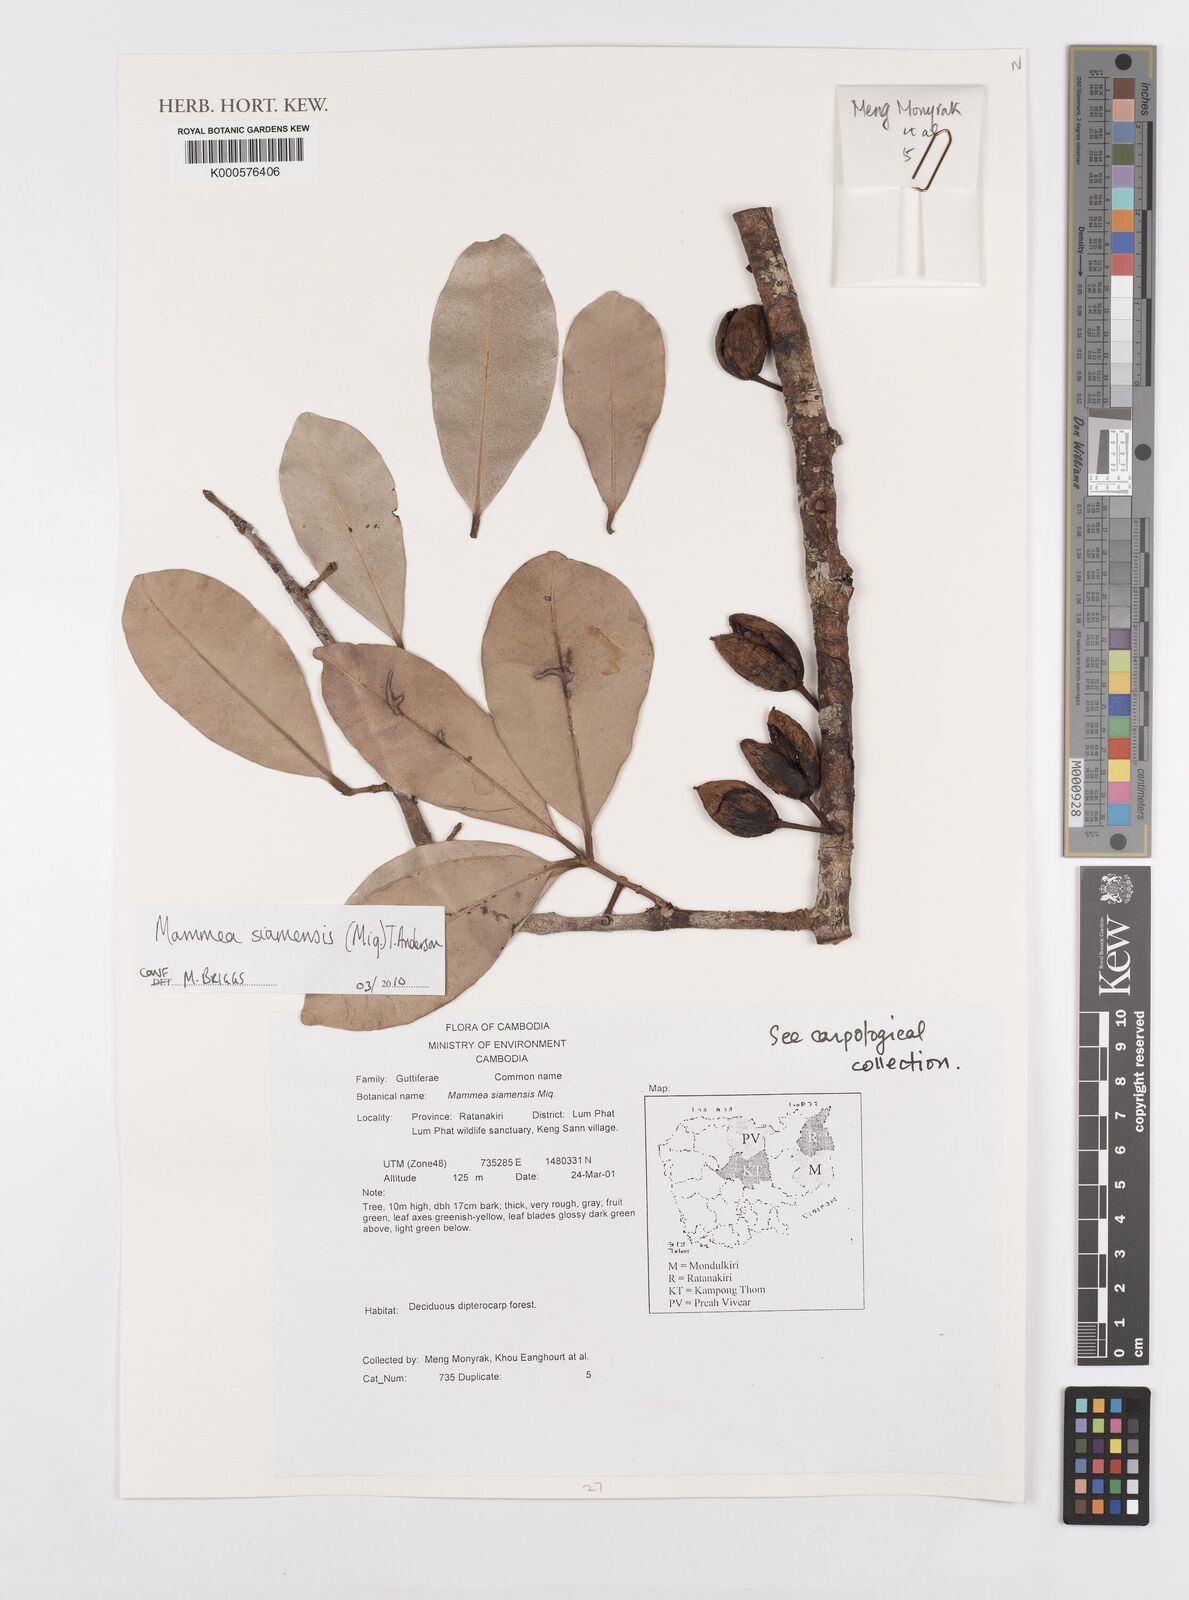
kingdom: Plantae
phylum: Tracheophyta
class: Magnoliopsida
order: Malpighiales
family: Calophyllaceae
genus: Mammea
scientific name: Mammea siamensis
